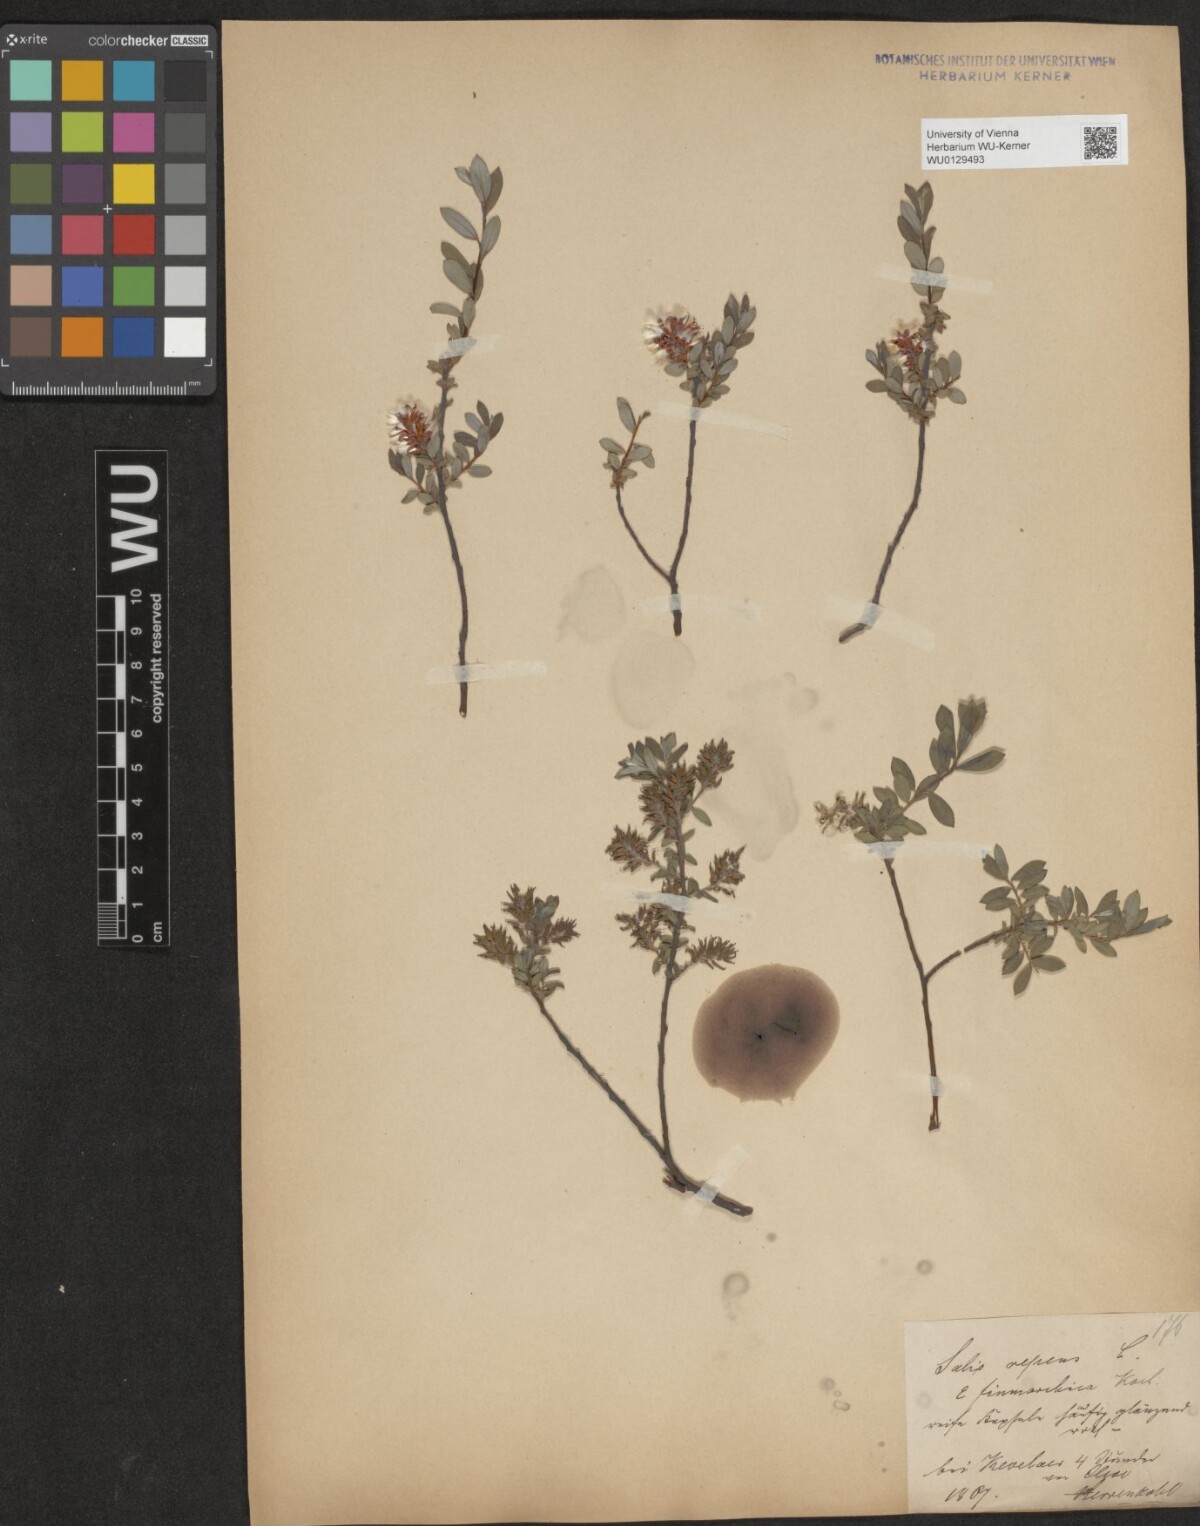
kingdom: Plantae
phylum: Tracheophyta
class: Magnoliopsida
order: Malpighiales
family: Salicaceae
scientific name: Salicaceae
